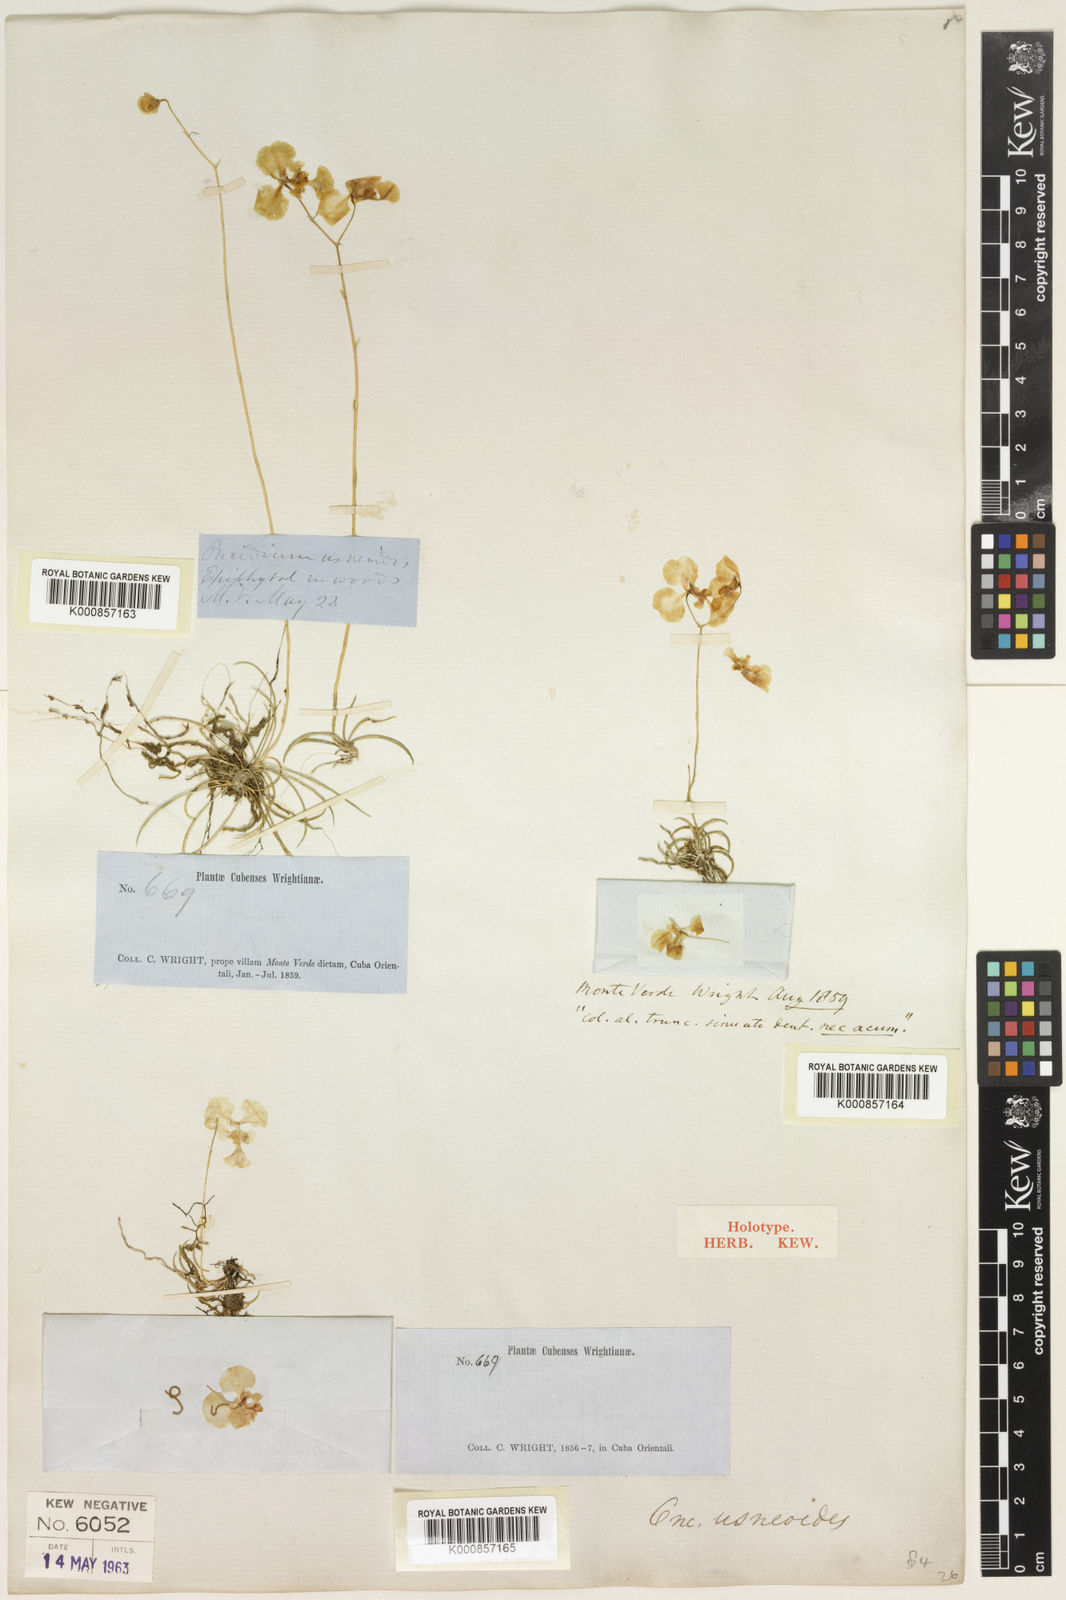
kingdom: Plantae
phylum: Tracheophyta
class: Liliopsida
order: Asparagales
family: Orchidaceae
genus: Tolumnia
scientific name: Tolumnia usneoides
